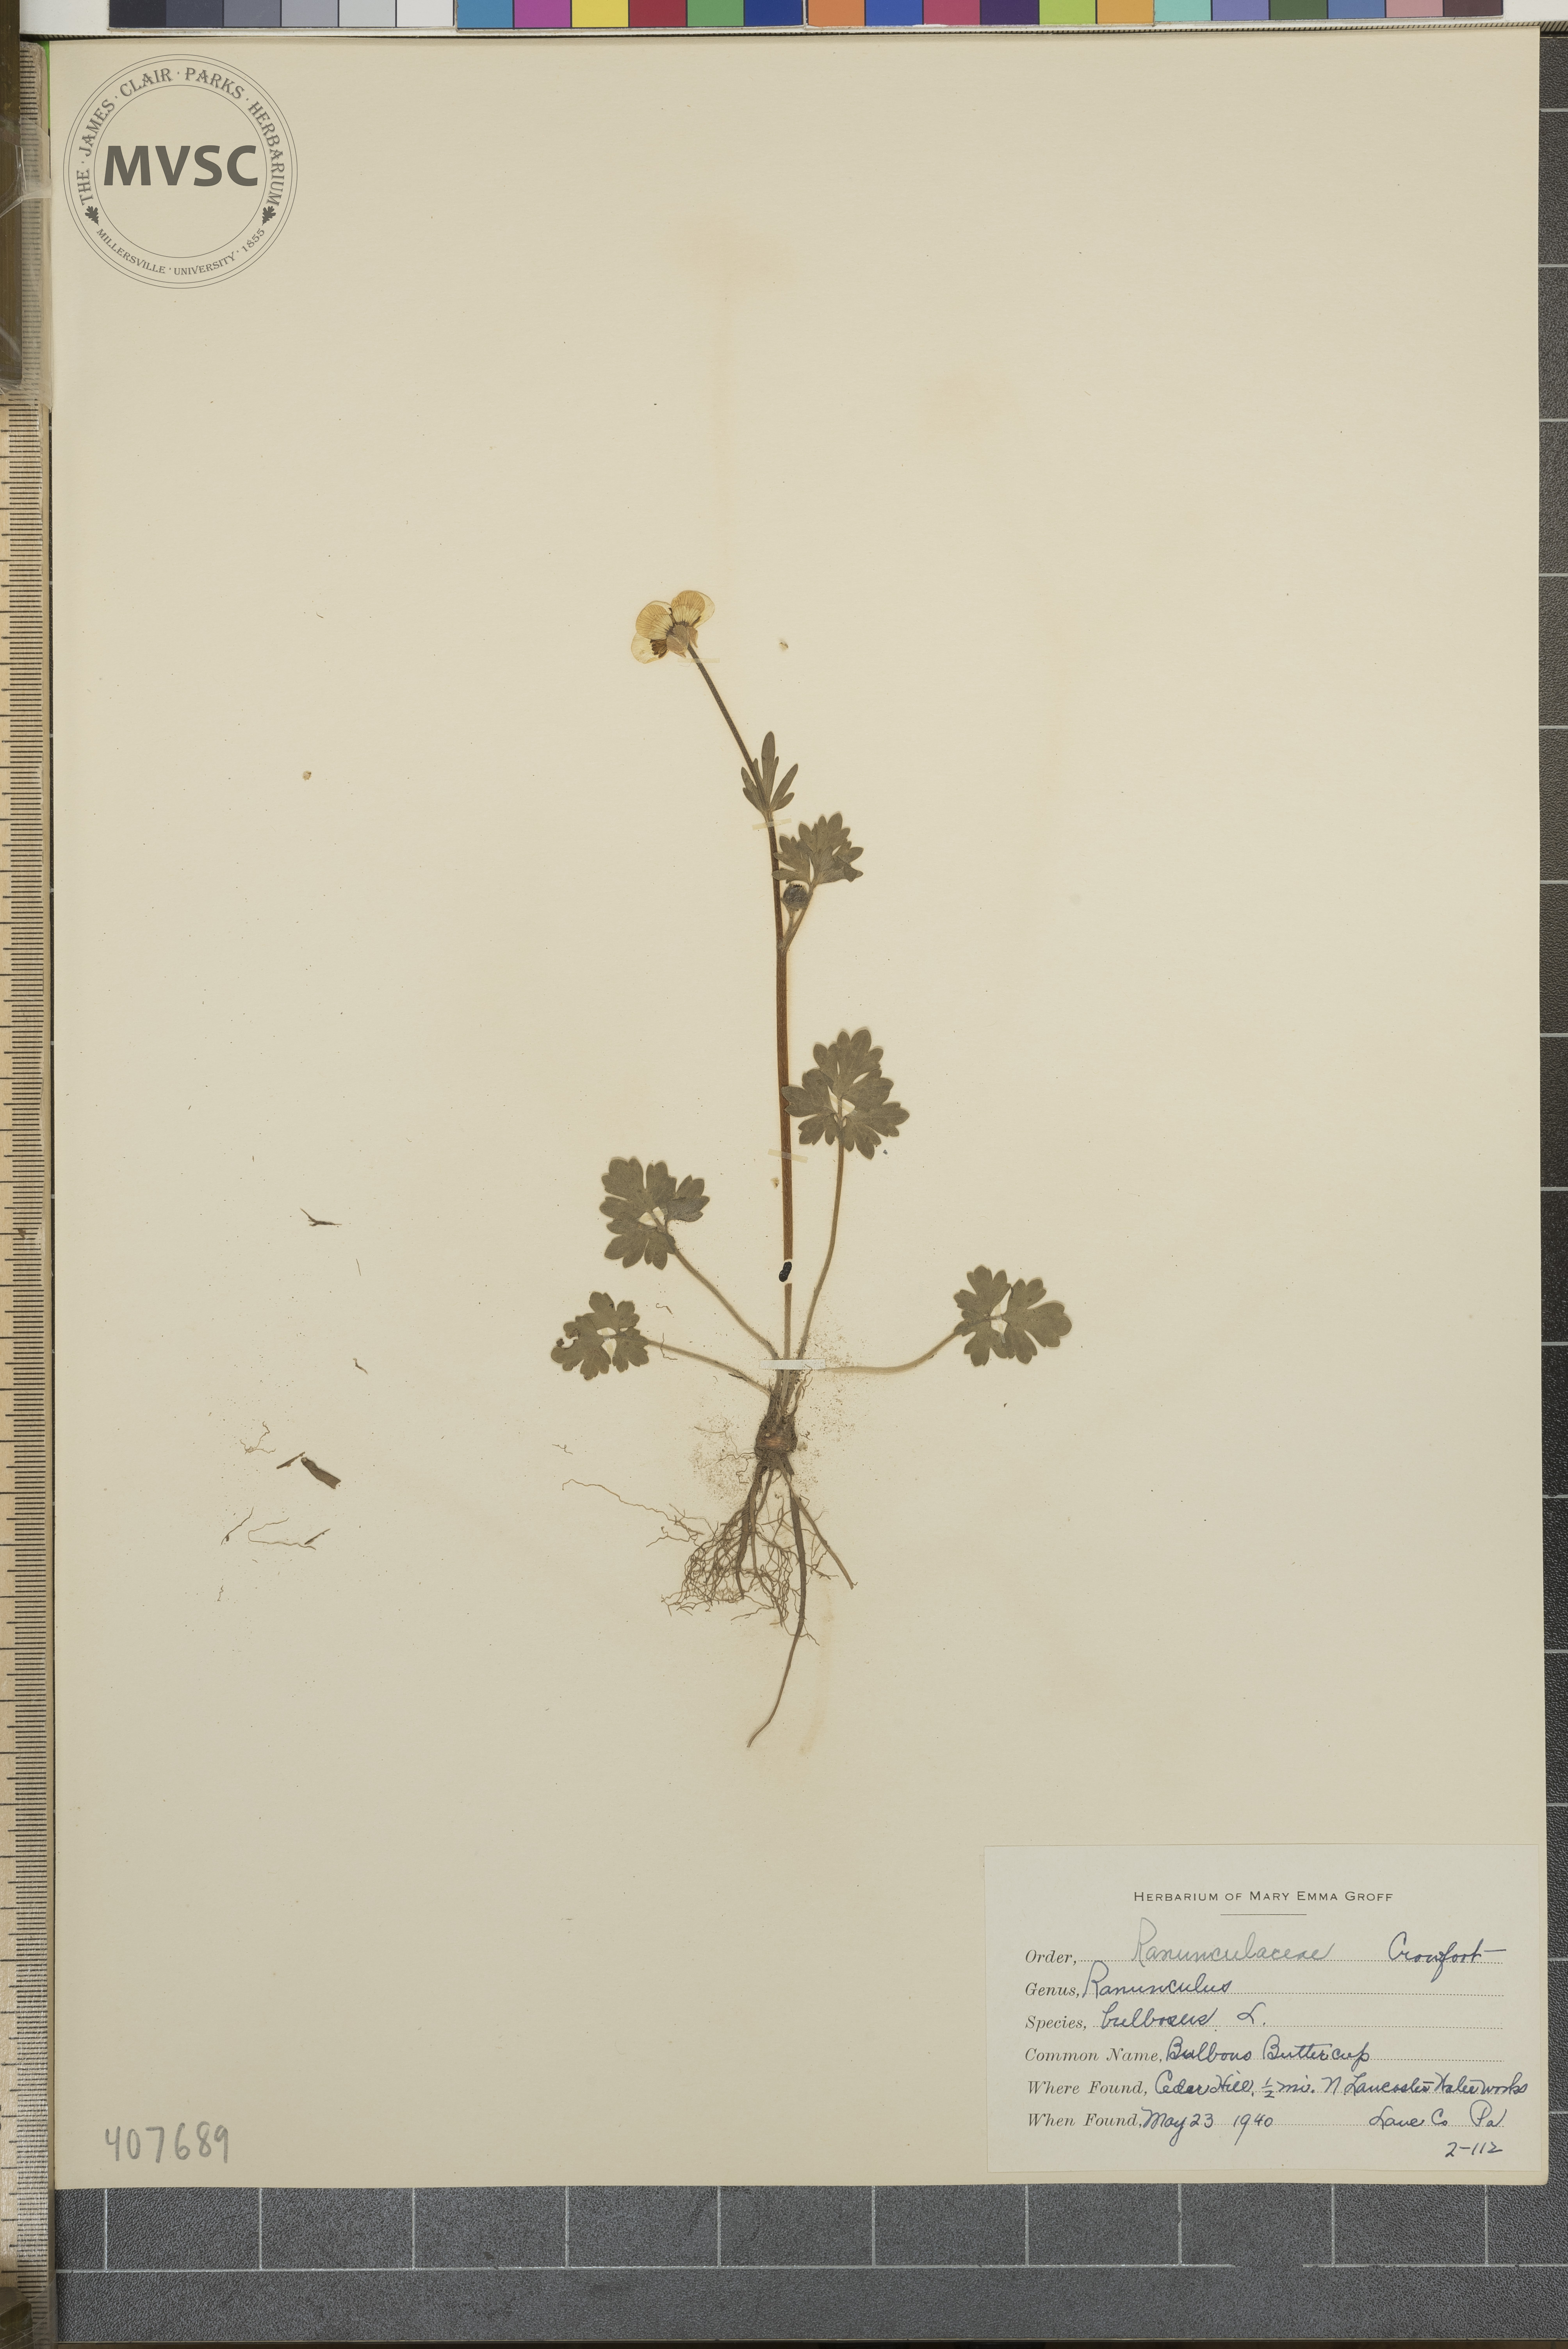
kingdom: Plantae
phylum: Tracheophyta
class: Magnoliopsida
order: Ranunculales
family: Ranunculaceae
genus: Ranunculus
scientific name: Ranunculus bulbosus
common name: Bulbous Buttercup
